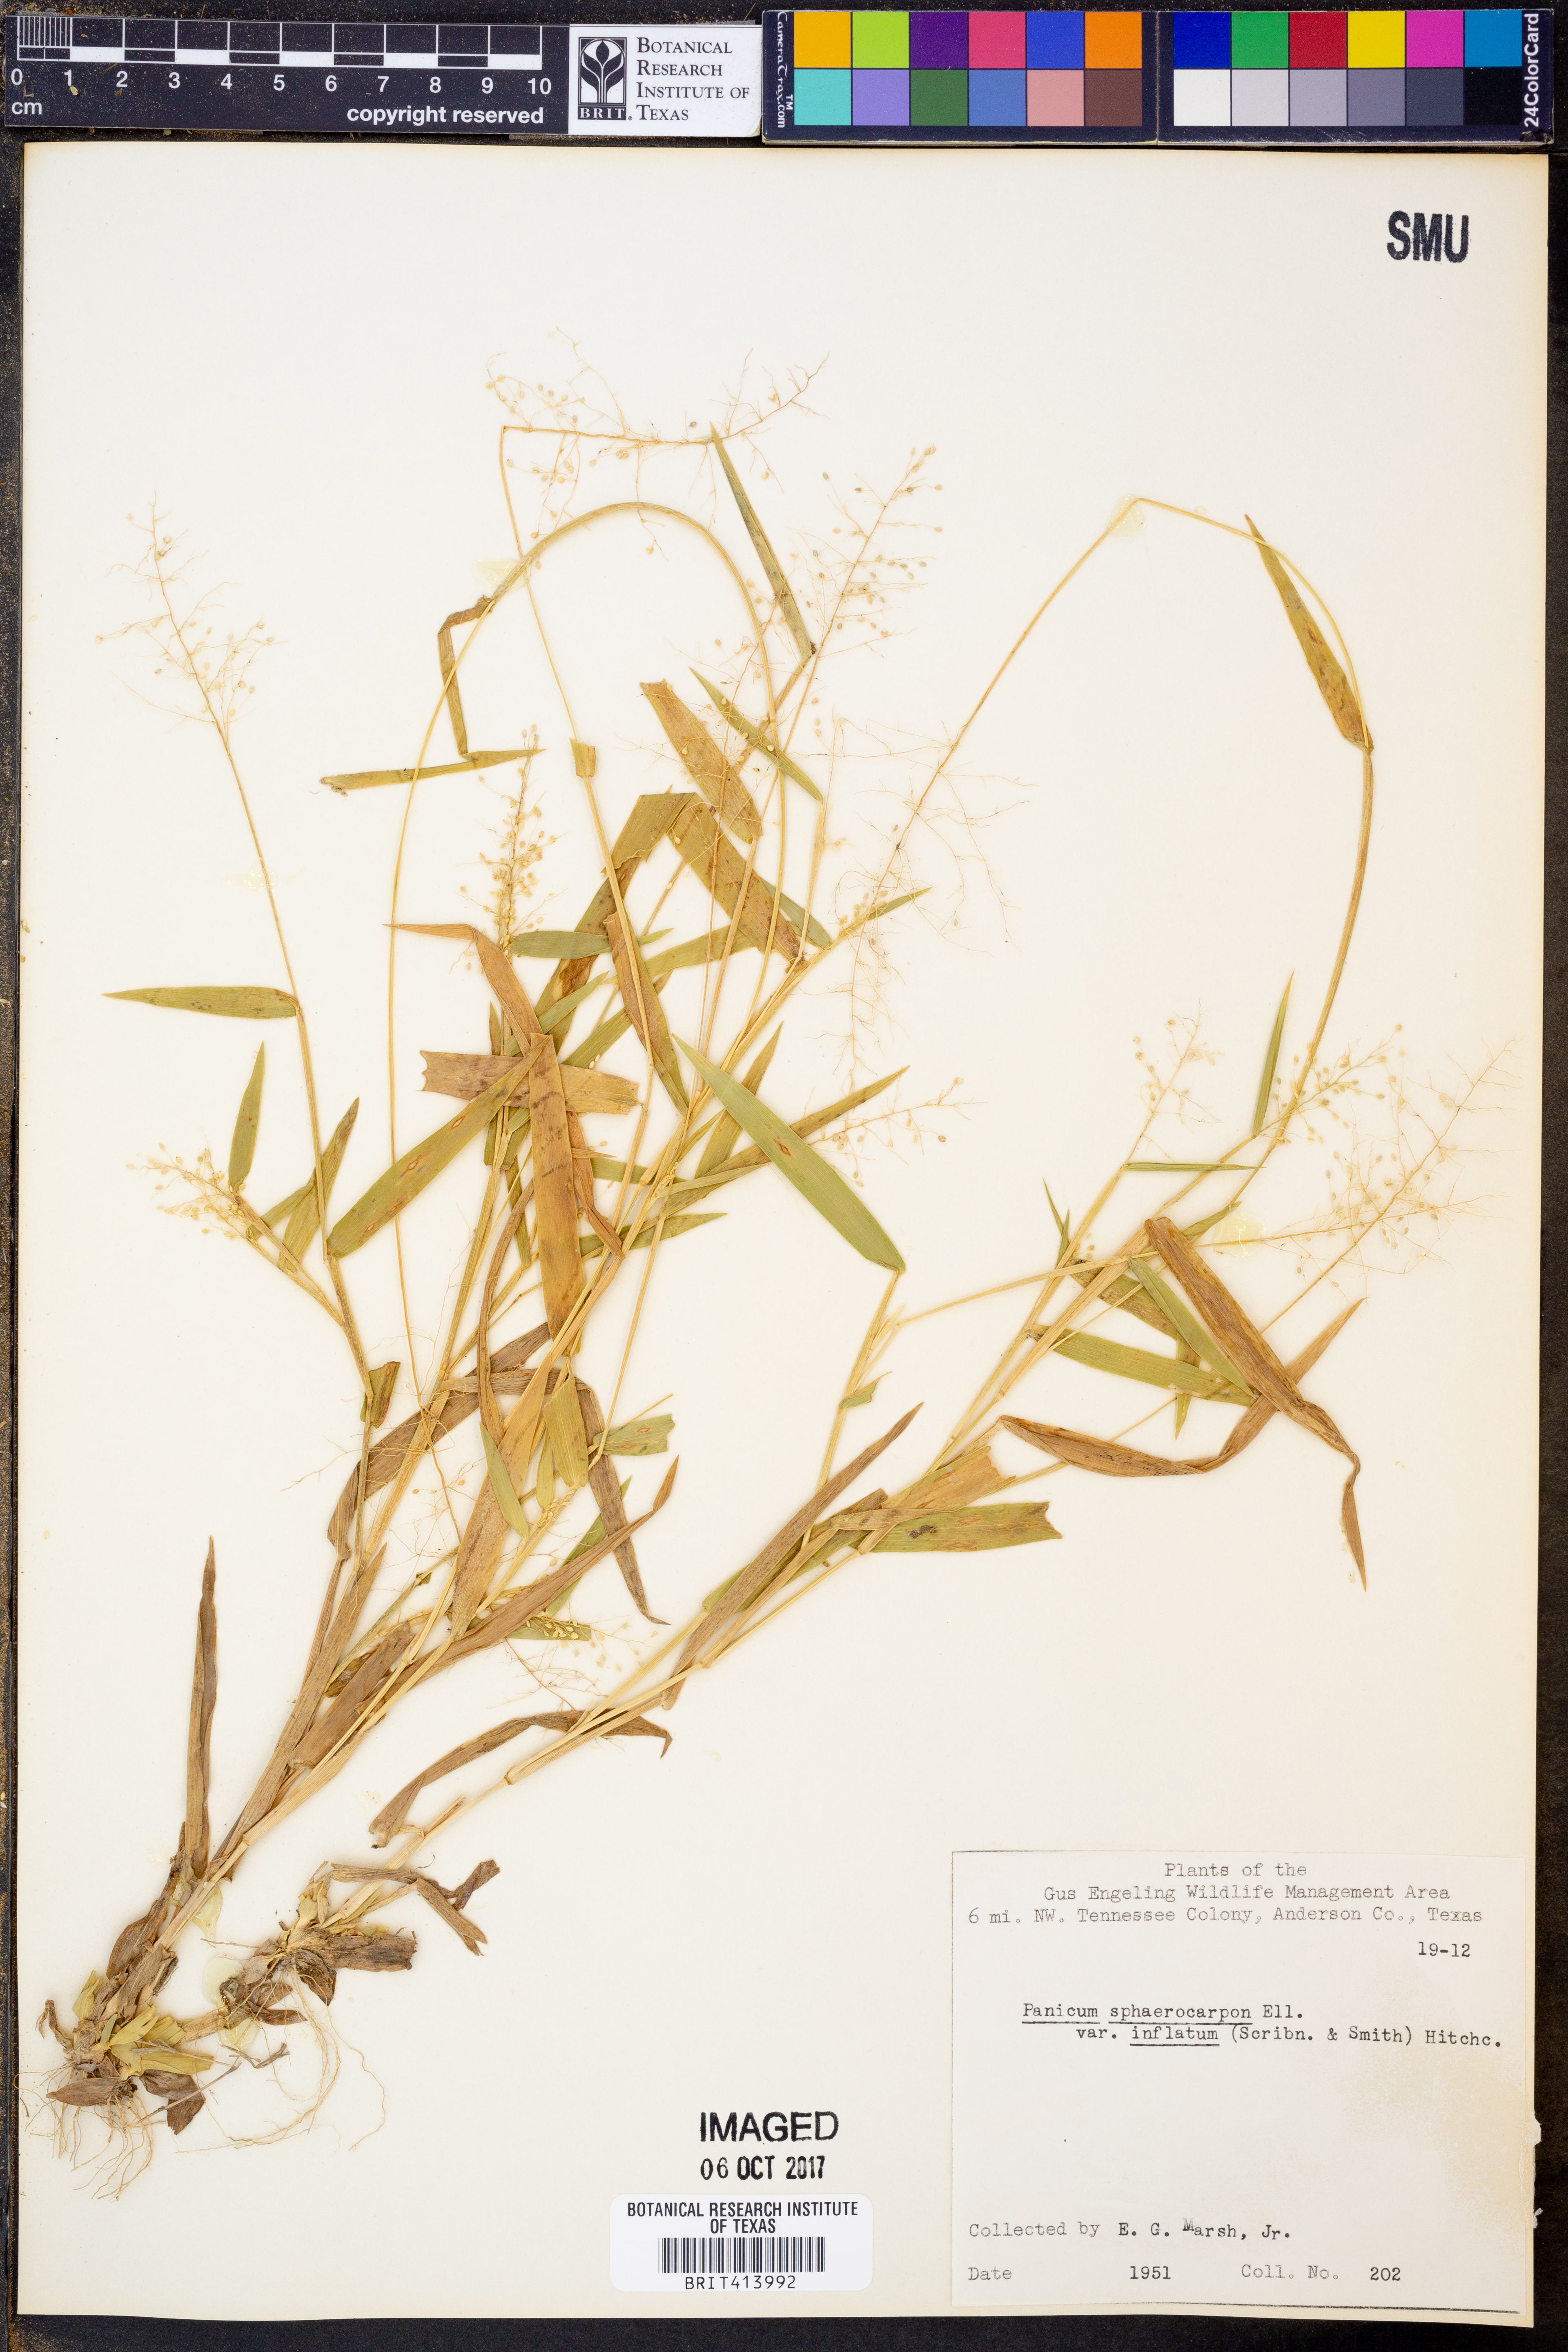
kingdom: Plantae
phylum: Tracheophyta
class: Liliopsida
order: Poales
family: Poaceae
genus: Dichanthelium
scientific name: Dichanthelium inflatum
